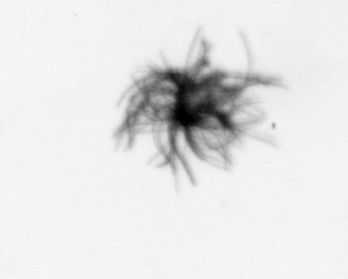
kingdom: Bacteria
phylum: Cyanobacteria
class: Cyanobacteriia
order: Cyanobacteriales
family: Microcoleaceae
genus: Trichodesmium
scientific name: Trichodesmium
